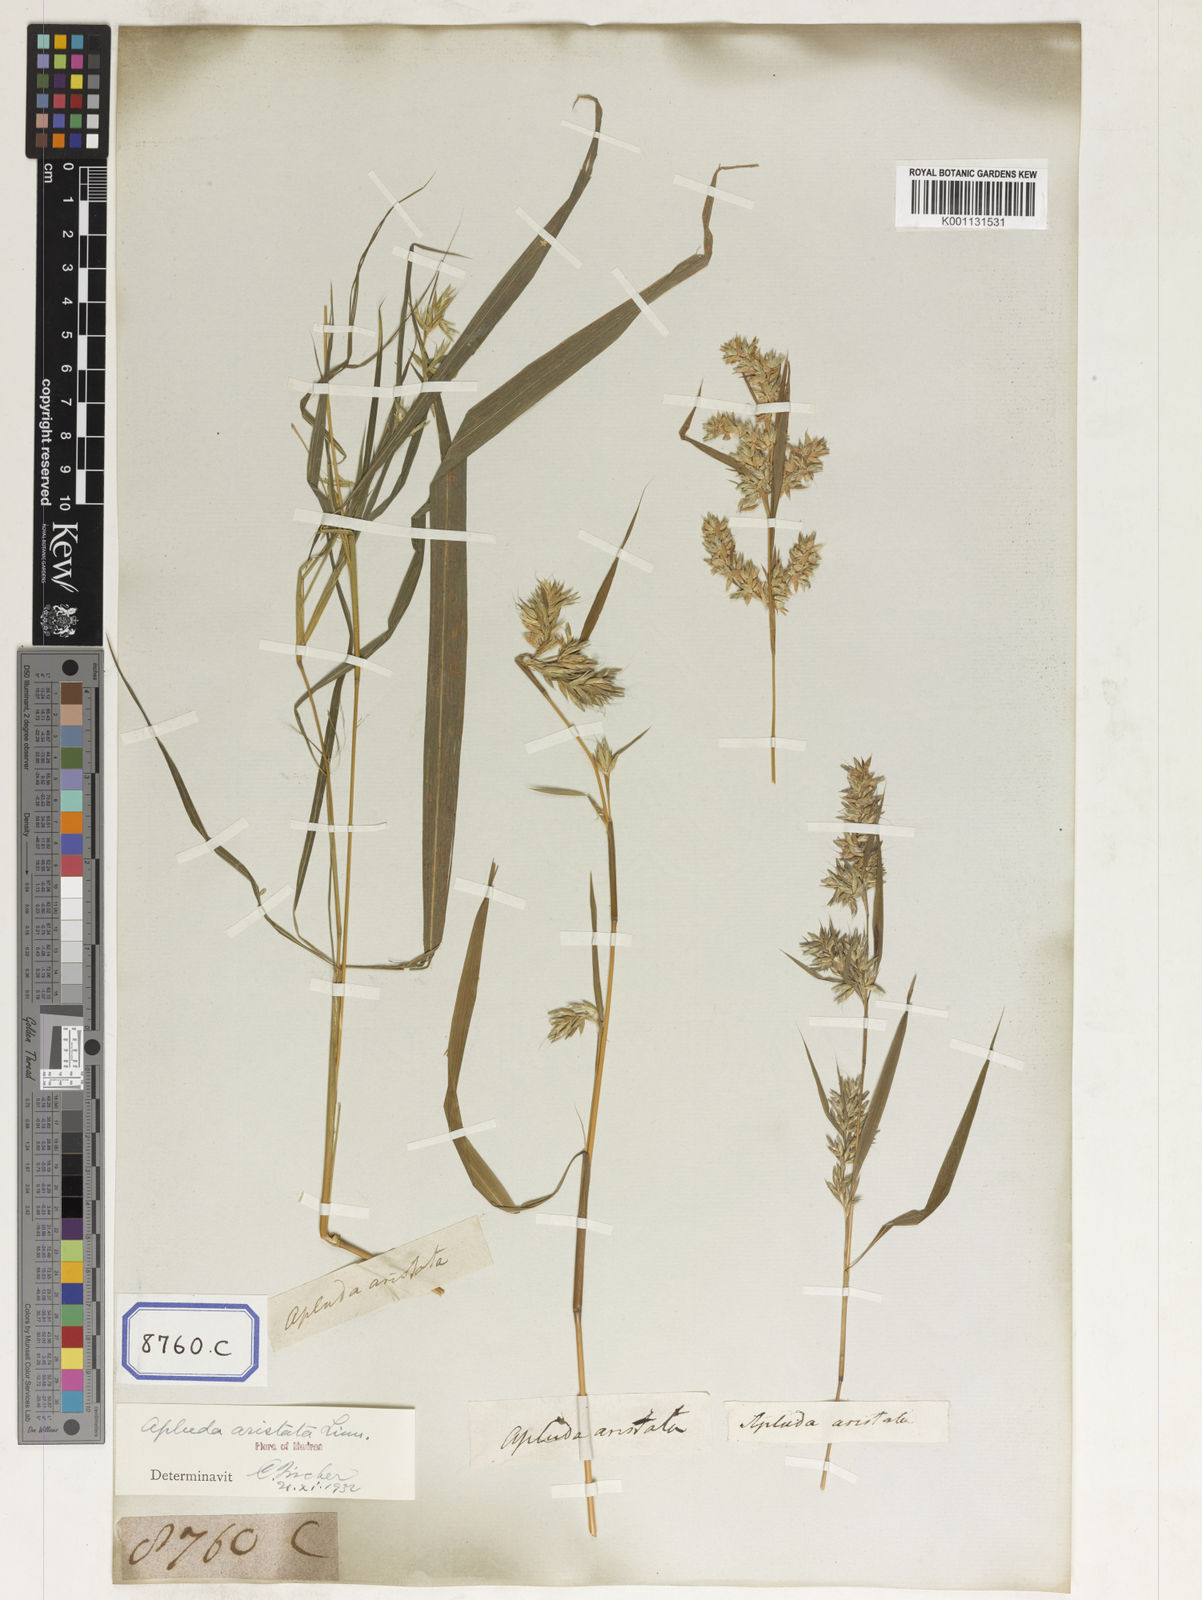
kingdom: Plantae
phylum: Tracheophyta
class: Liliopsida
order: Poales
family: Poaceae
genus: Apluda
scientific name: Apluda
